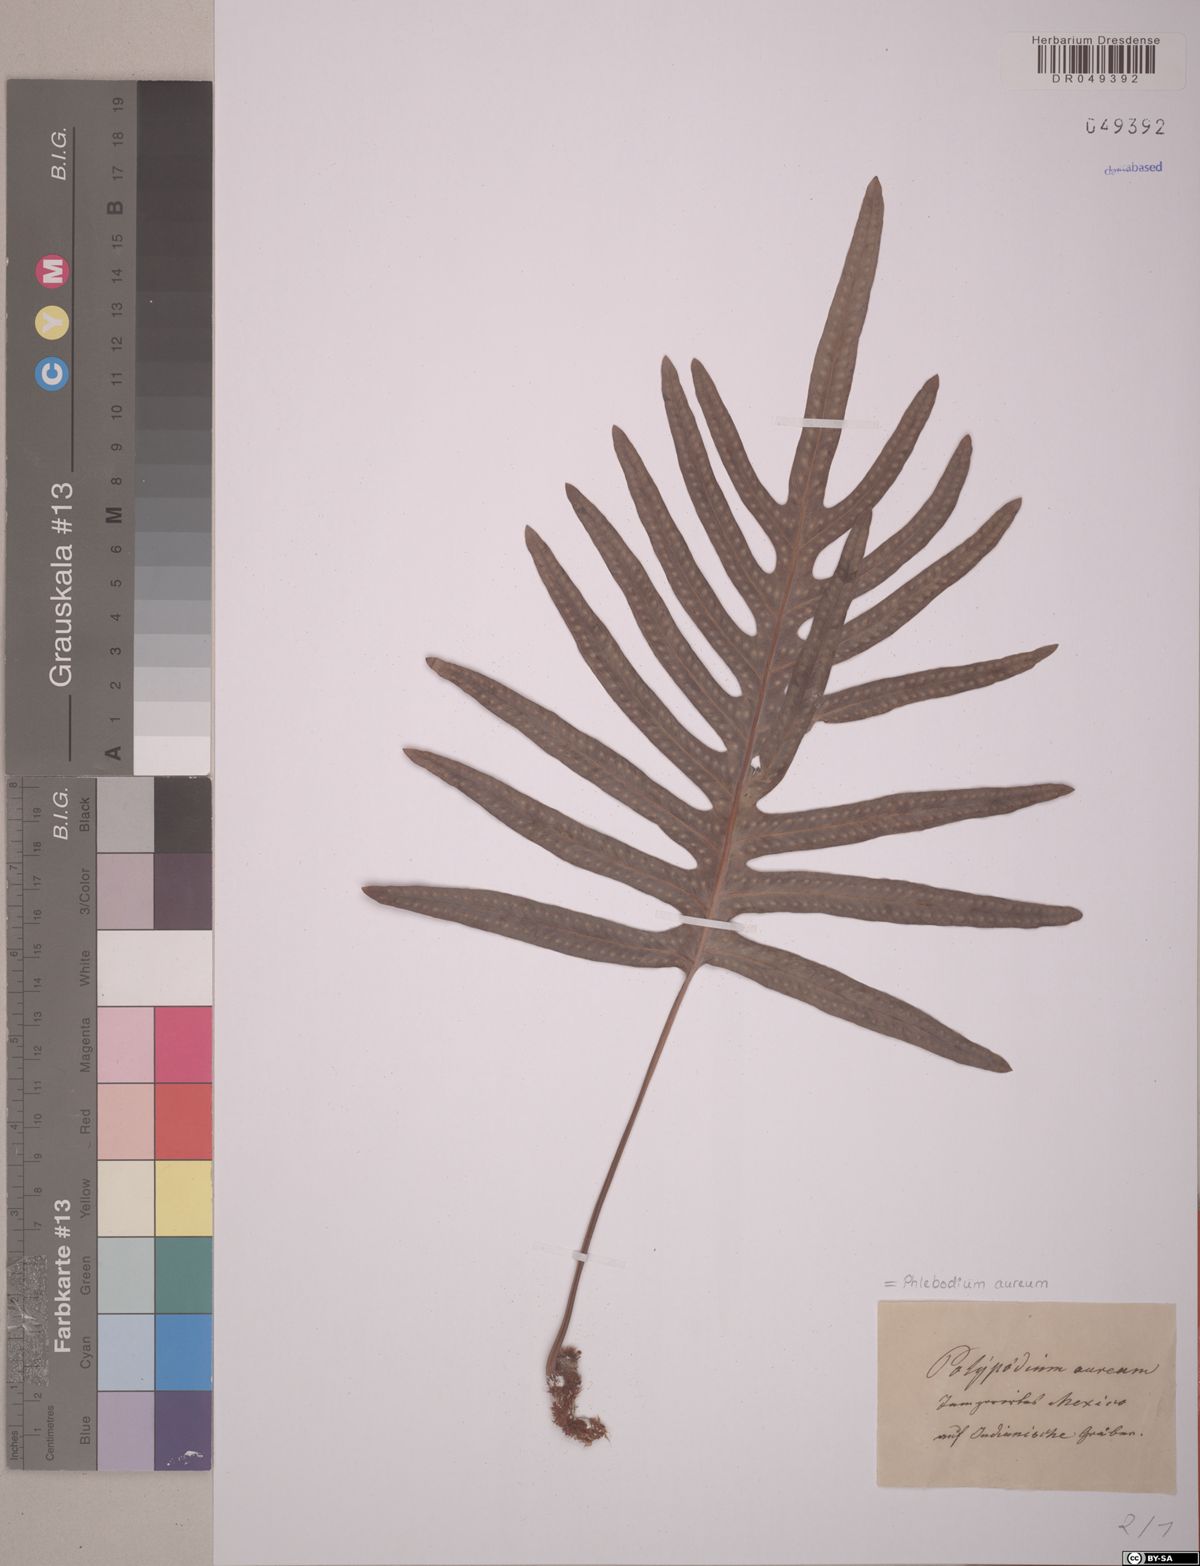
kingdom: Plantae
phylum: Tracheophyta
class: Polypodiopsida
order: Polypodiales
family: Polypodiaceae
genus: Phlebodium
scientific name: Phlebodium aureum
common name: Gold-foot fern
